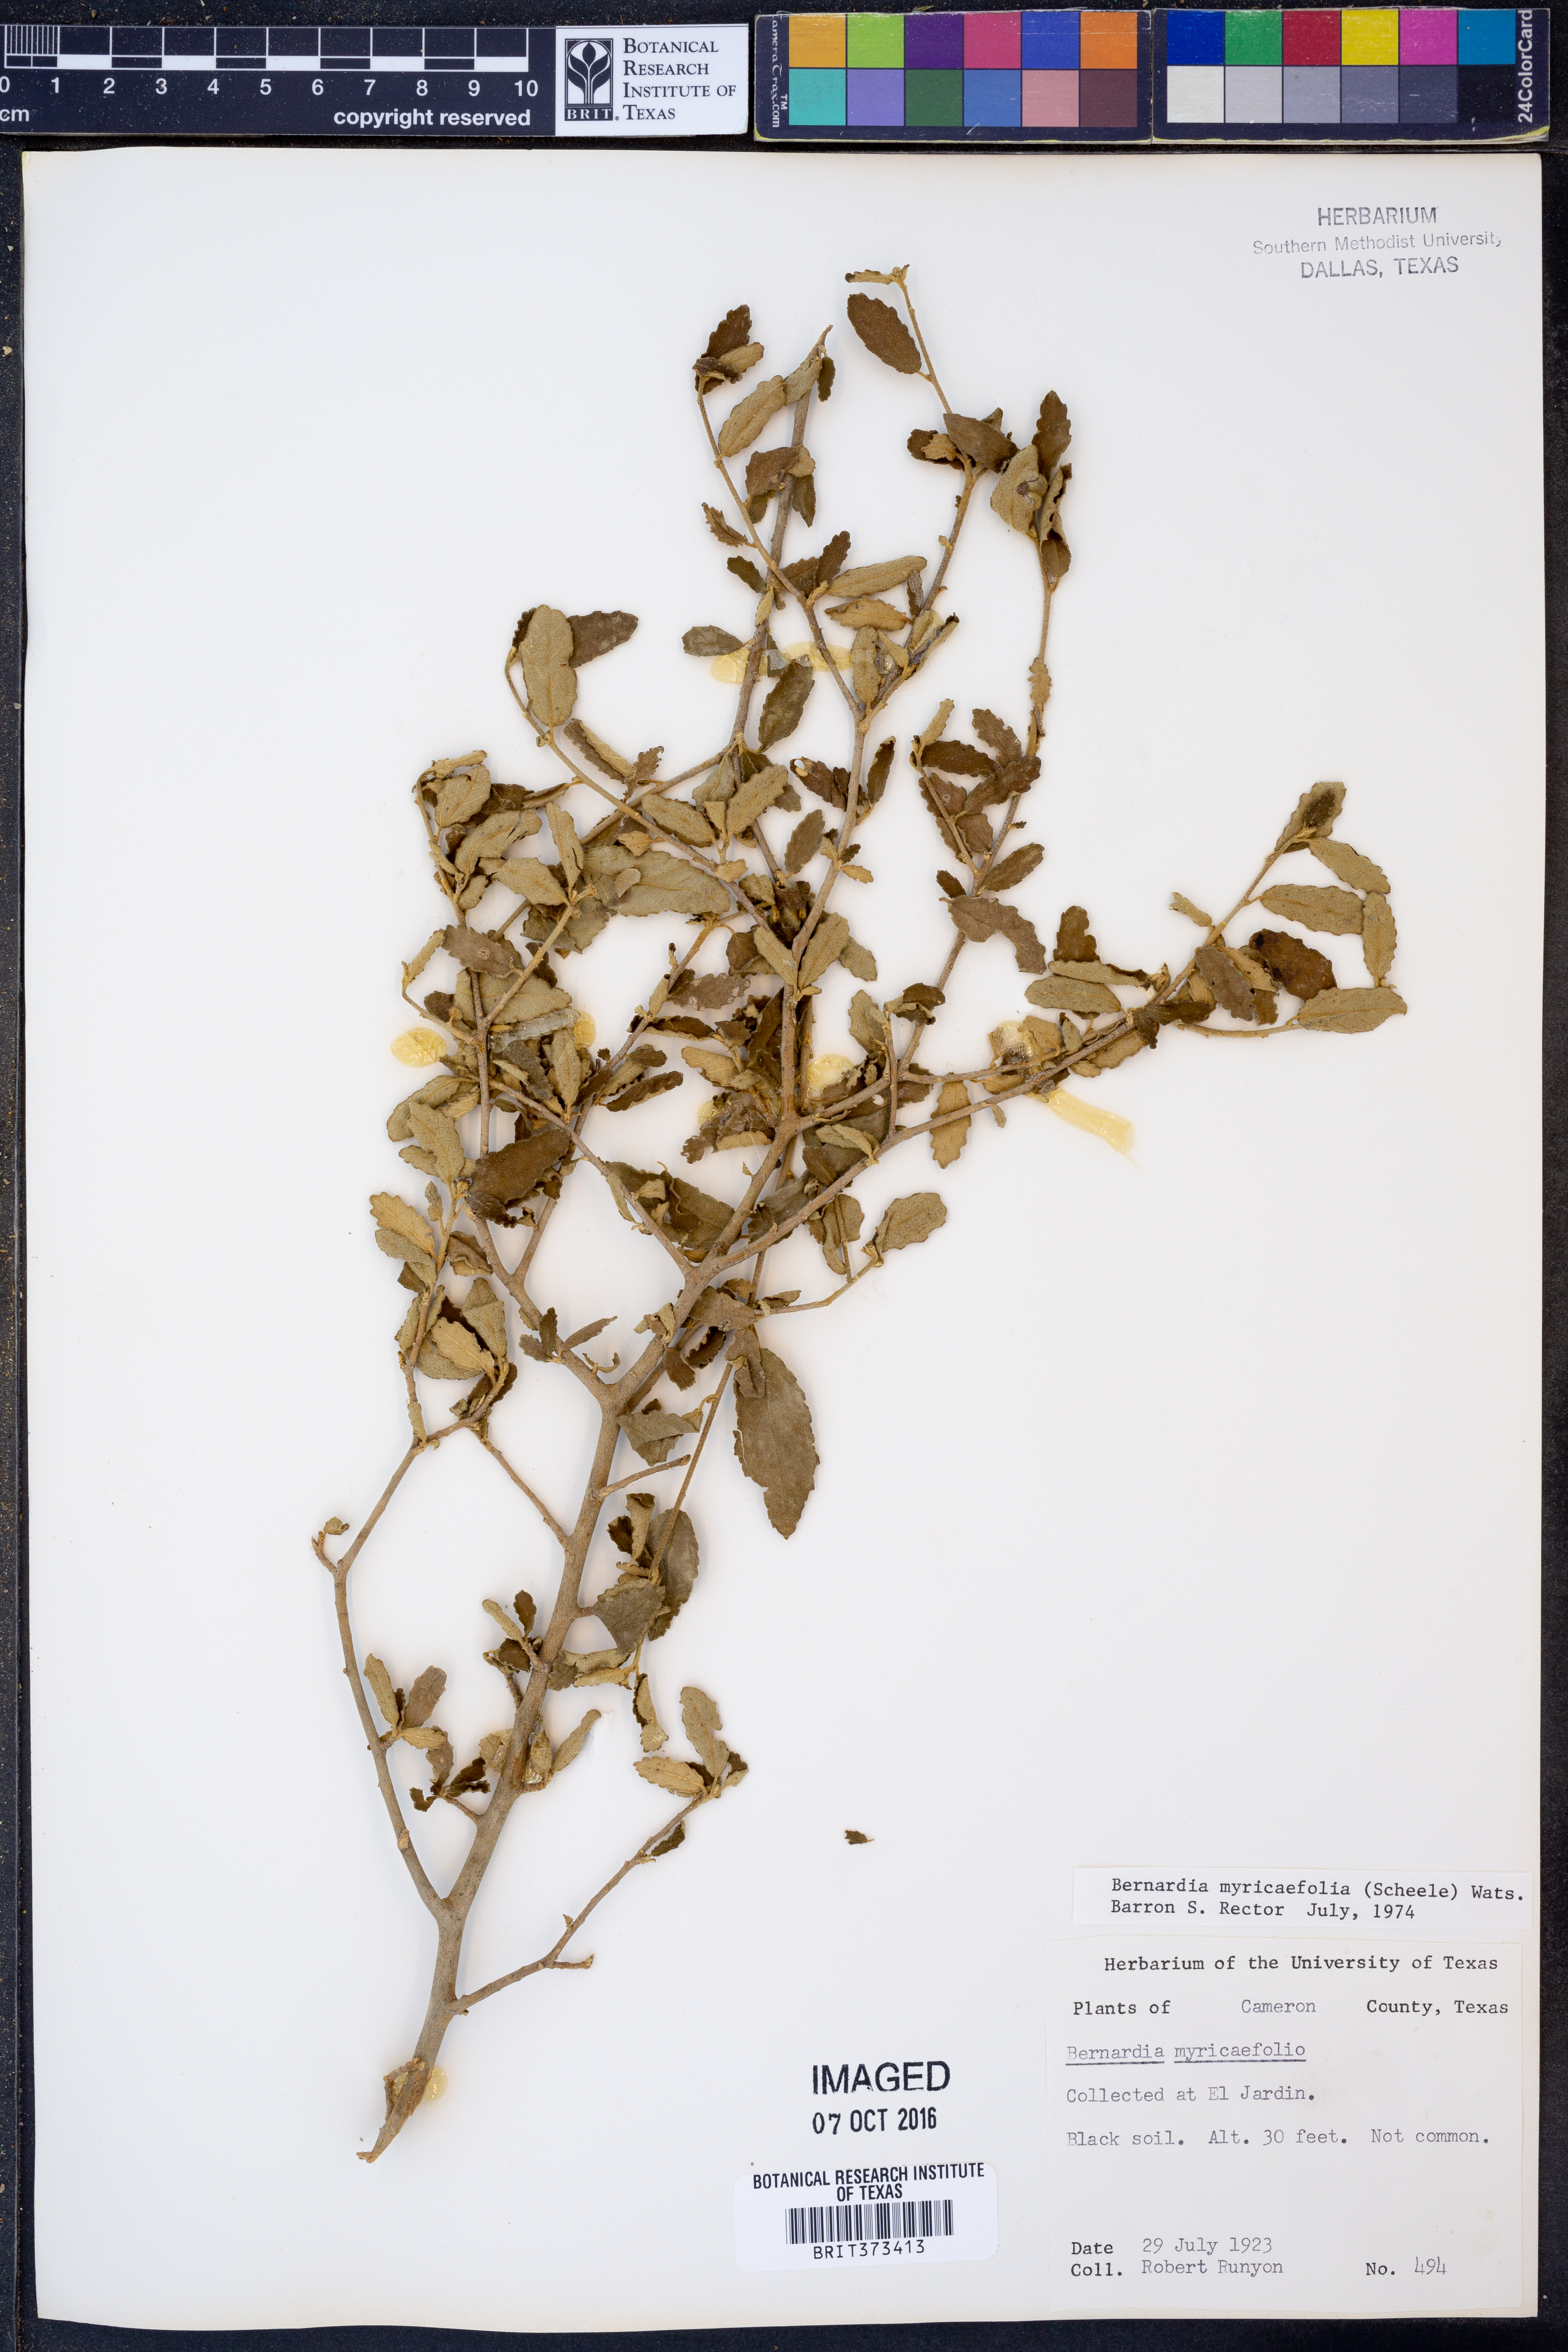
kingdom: Plantae
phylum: Tracheophyta
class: Magnoliopsida
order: Malpighiales
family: Euphorbiaceae
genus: Bernardia
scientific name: Bernardia myricifolia
